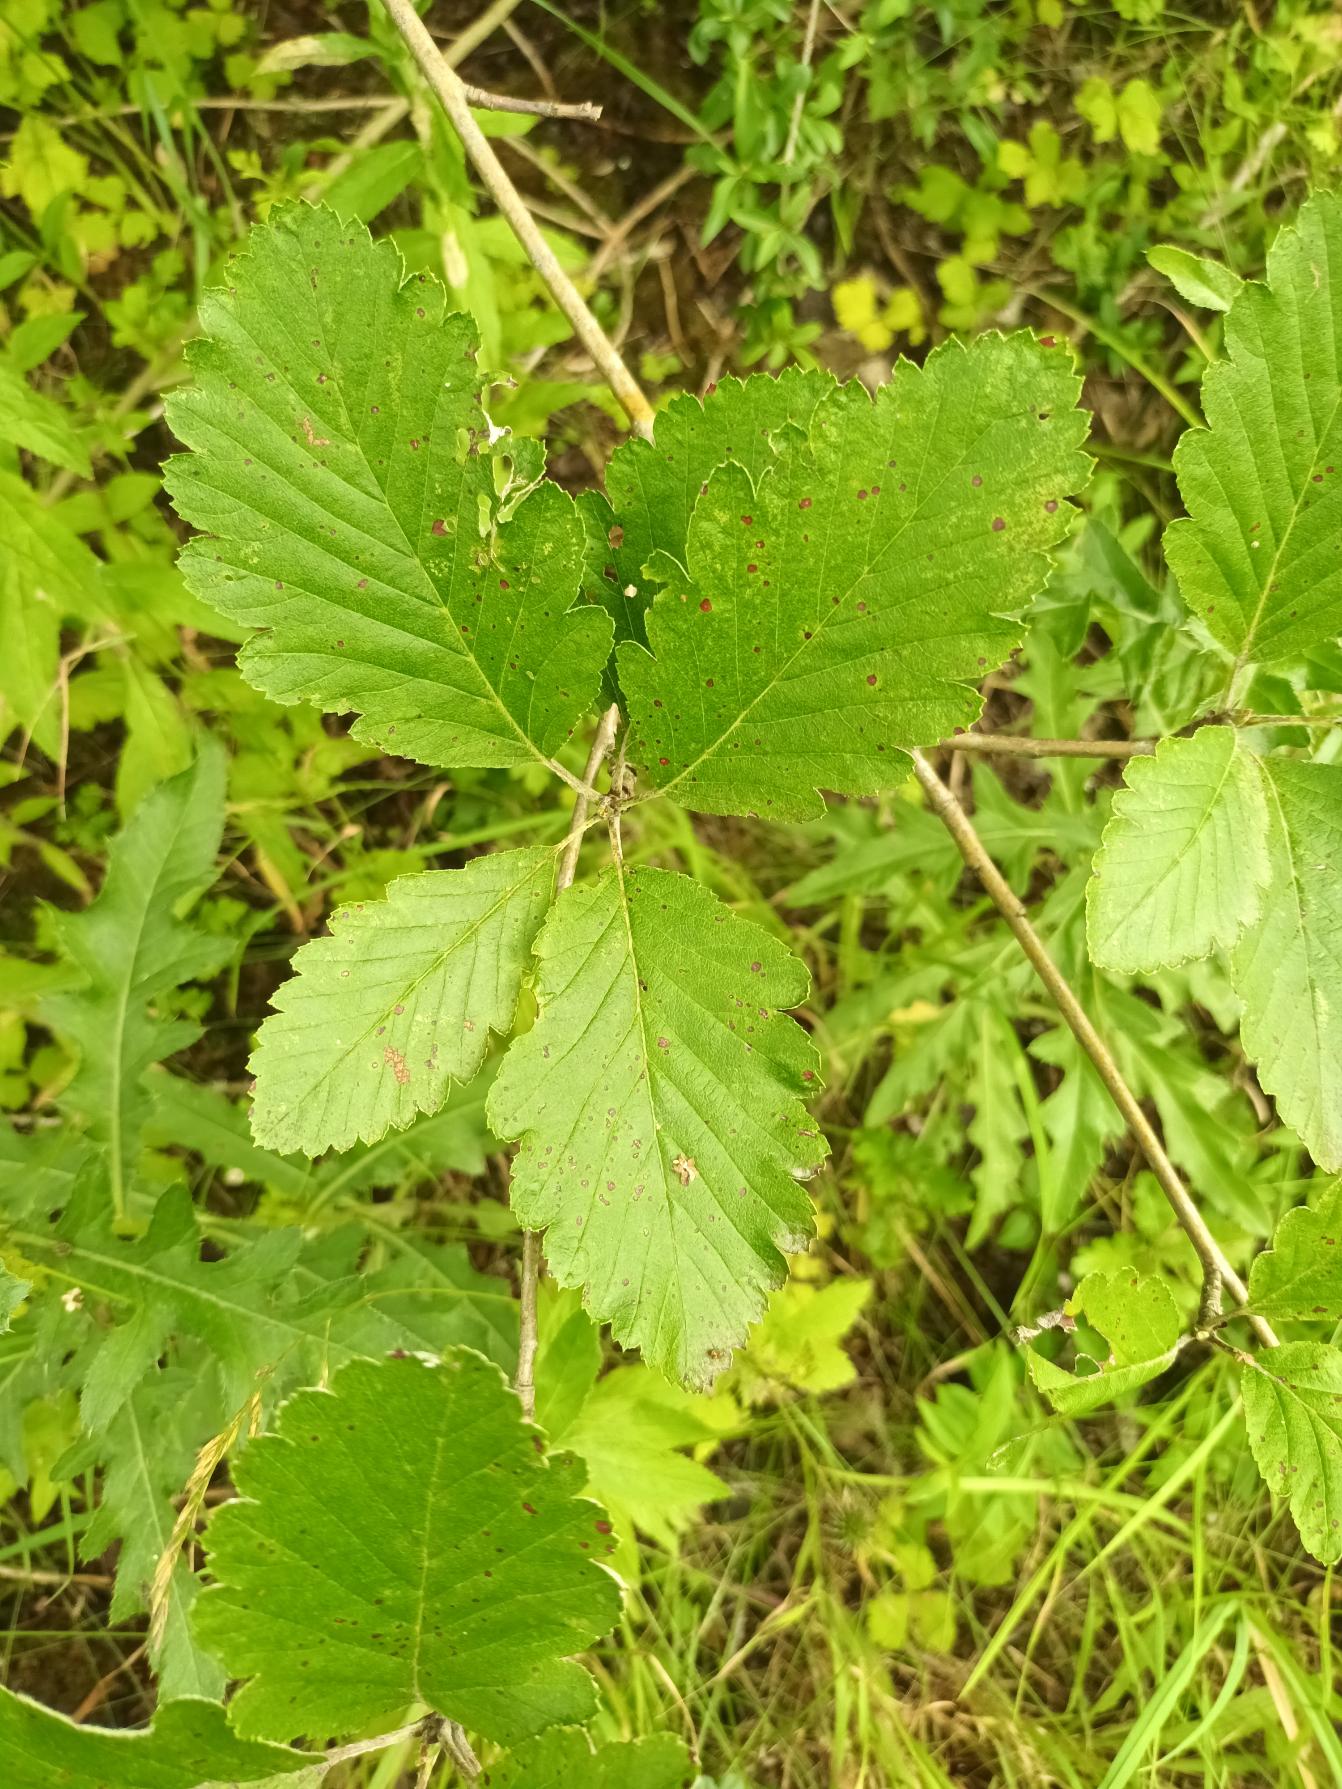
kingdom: Plantae
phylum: Tracheophyta
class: Magnoliopsida
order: Rosales
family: Rosaceae
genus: Hedlundia
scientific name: Hedlundia austriaca
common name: Østrigsk røn
